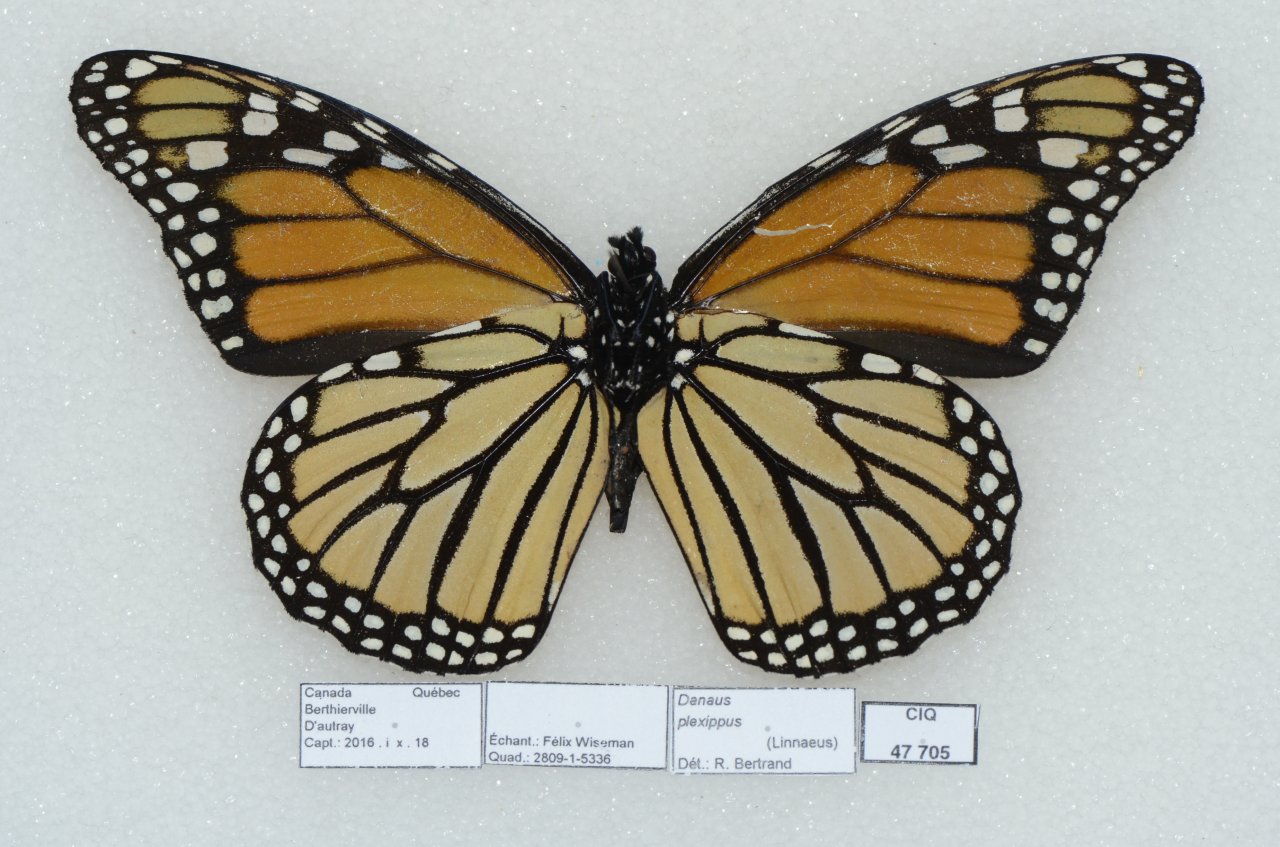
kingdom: Animalia
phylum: Arthropoda
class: Insecta
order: Lepidoptera
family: Nymphalidae
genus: Danaus
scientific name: Danaus plexippus
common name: Monarch
